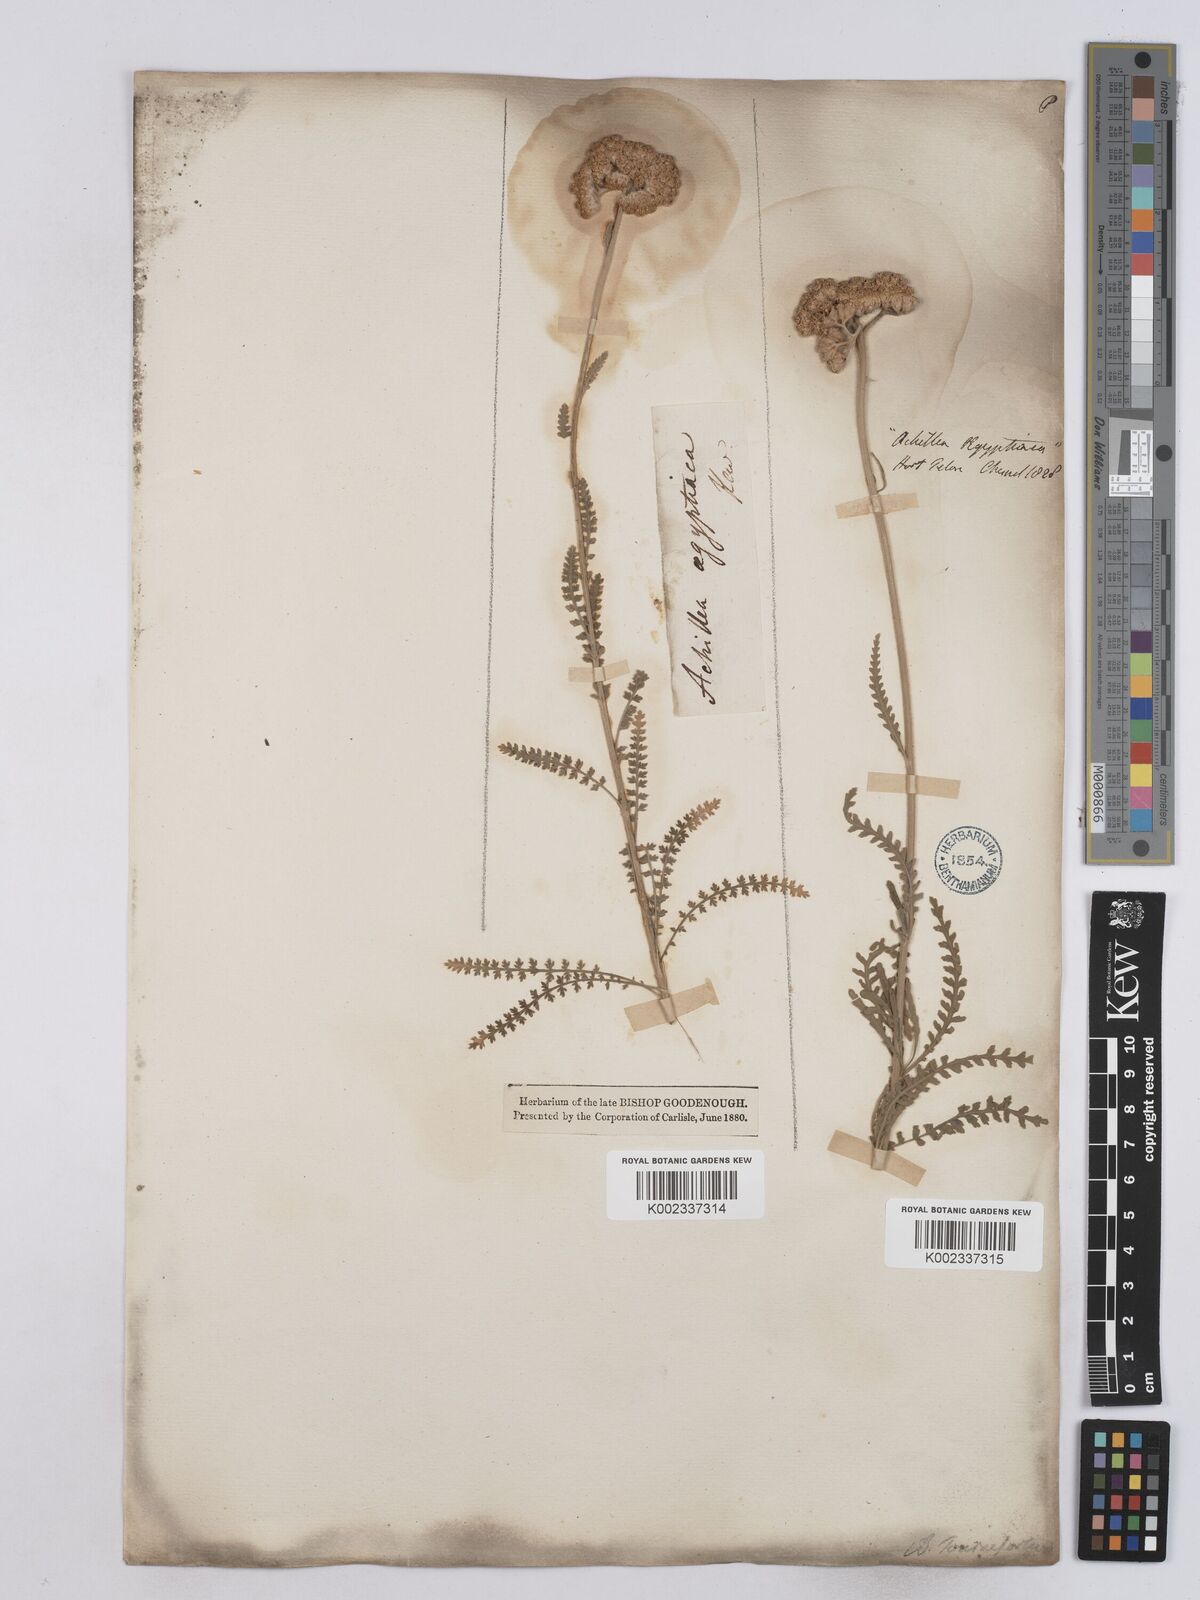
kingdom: Plantae
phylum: Tracheophyta
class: Magnoliopsida
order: Asterales
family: Asteraceae
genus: Achillea
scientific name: Achillea aegyptiaca
